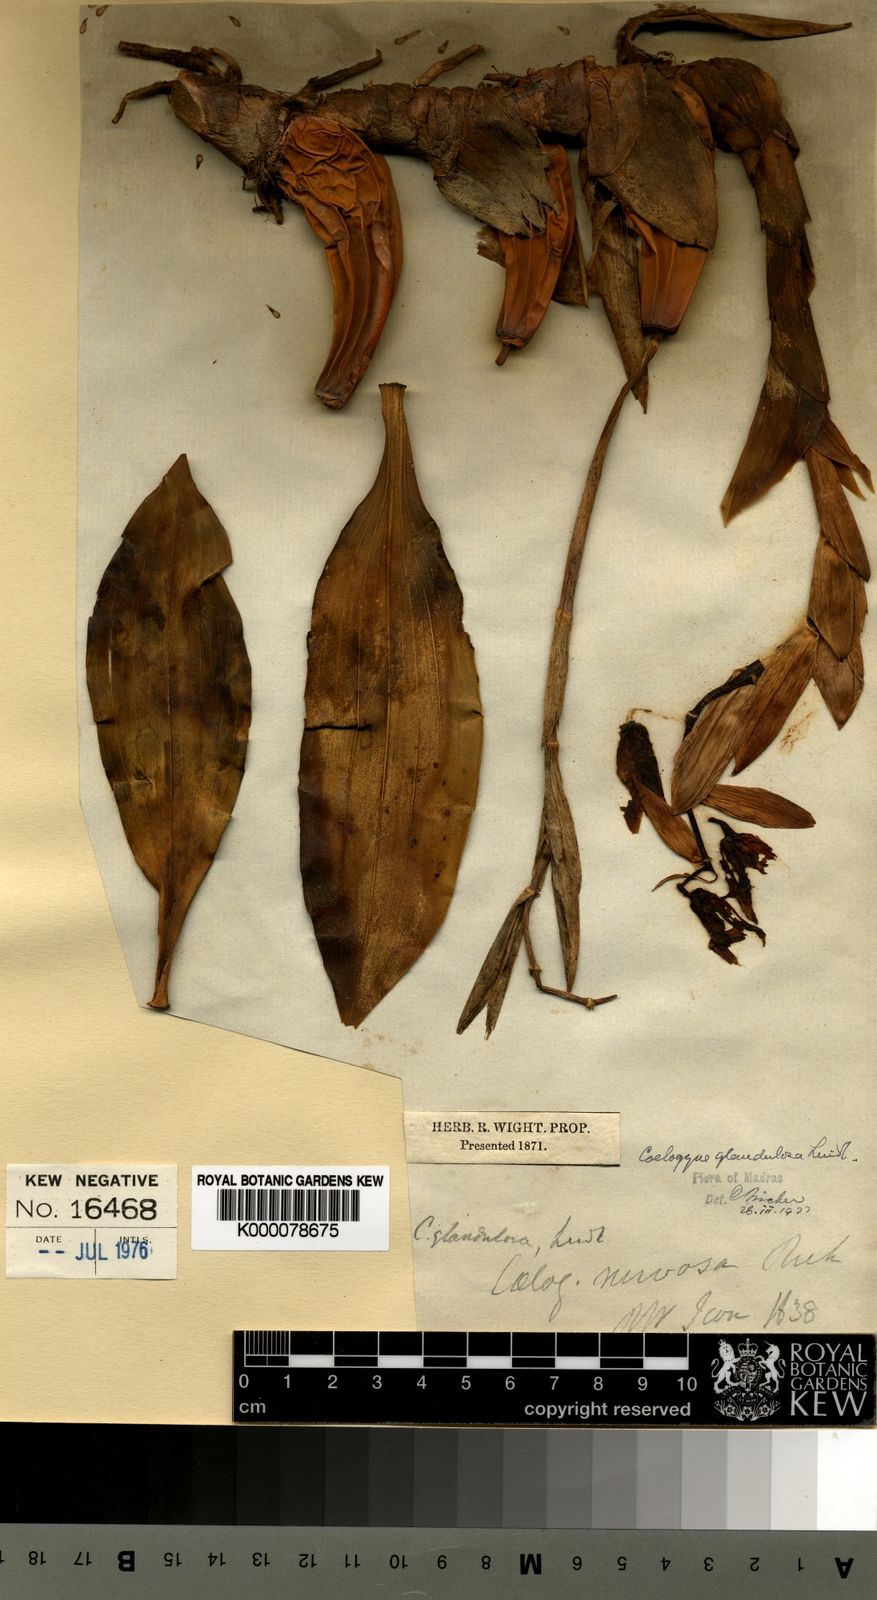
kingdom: Plantae
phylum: Tracheophyta
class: Liliopsida
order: Asparagales
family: Orchidaceae
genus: Coelogyne
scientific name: Coelogyne mossiae
